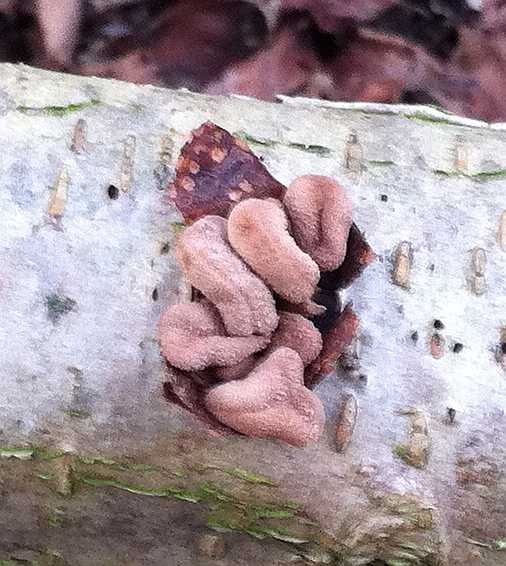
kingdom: Fungi
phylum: Ascomycota
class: Leotiomycetes
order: Helotiales
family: Cenangiaceae
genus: Encoelia
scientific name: Encoelia furfuracea
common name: hassel-læderskive
